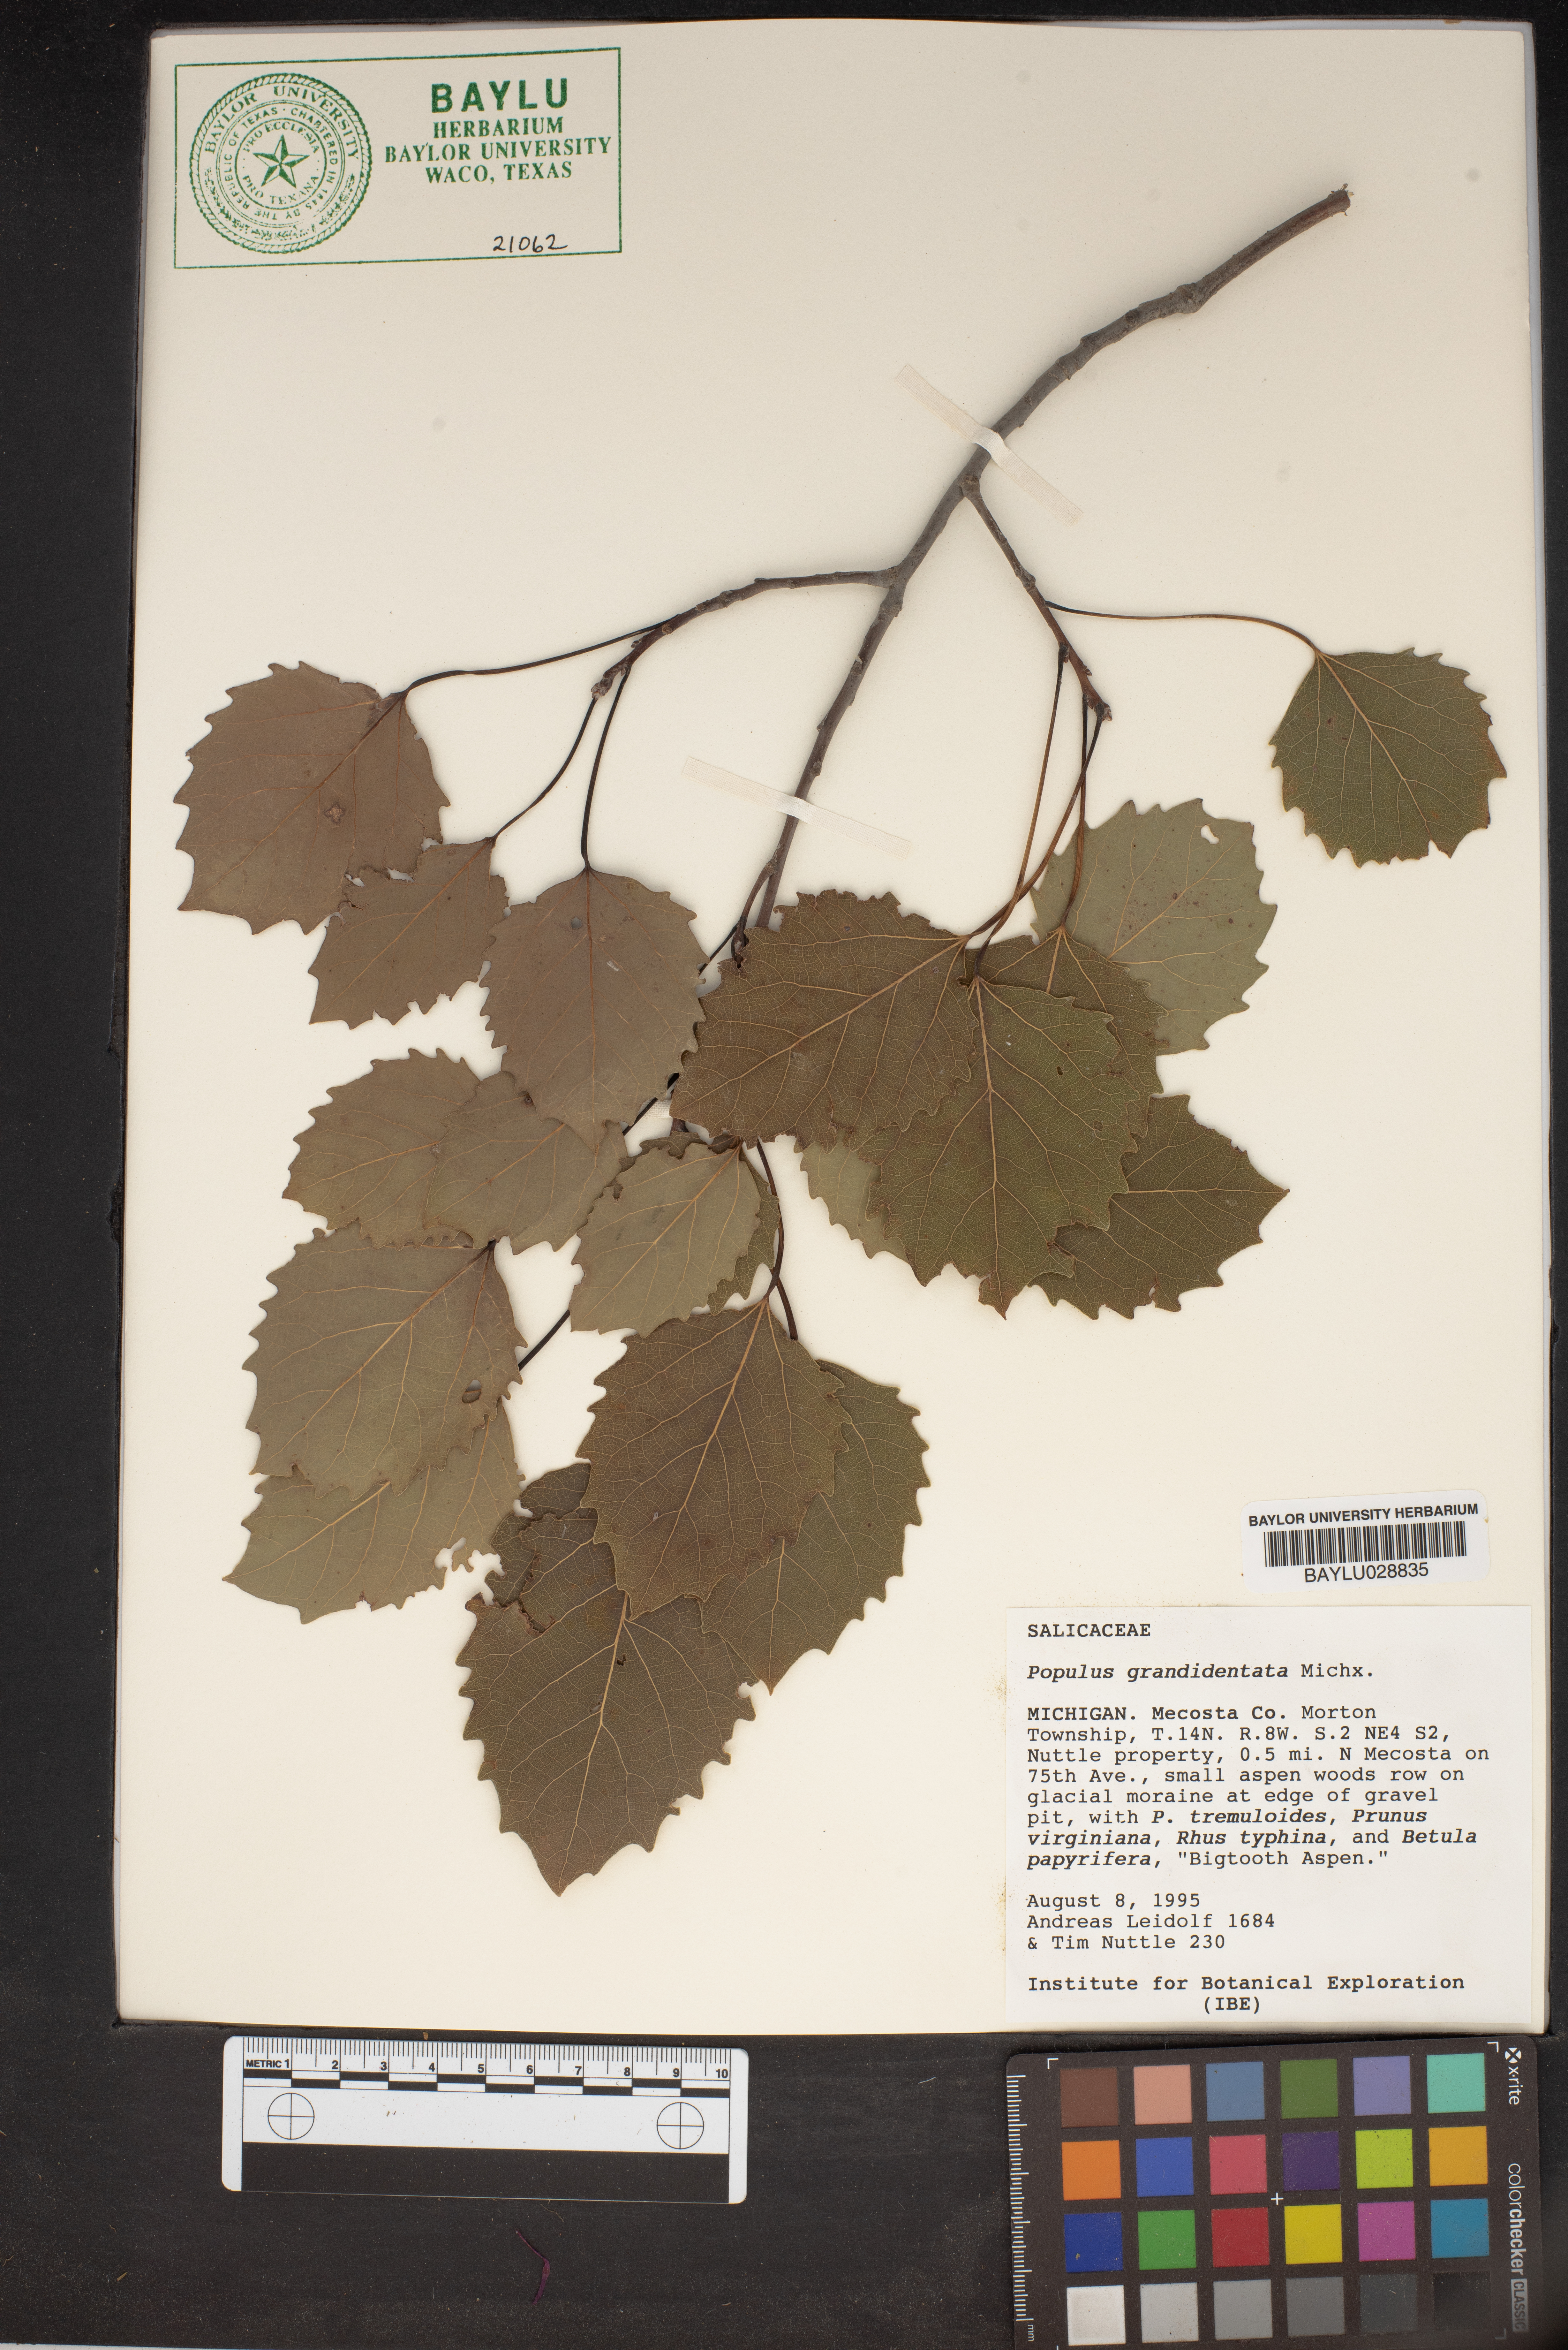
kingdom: Plantae
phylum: Tracheophyta
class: Magnoliopsida
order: Malpighiales
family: Salicaceae
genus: Populus
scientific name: Populus grandidentata
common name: Bigtooth aspen
